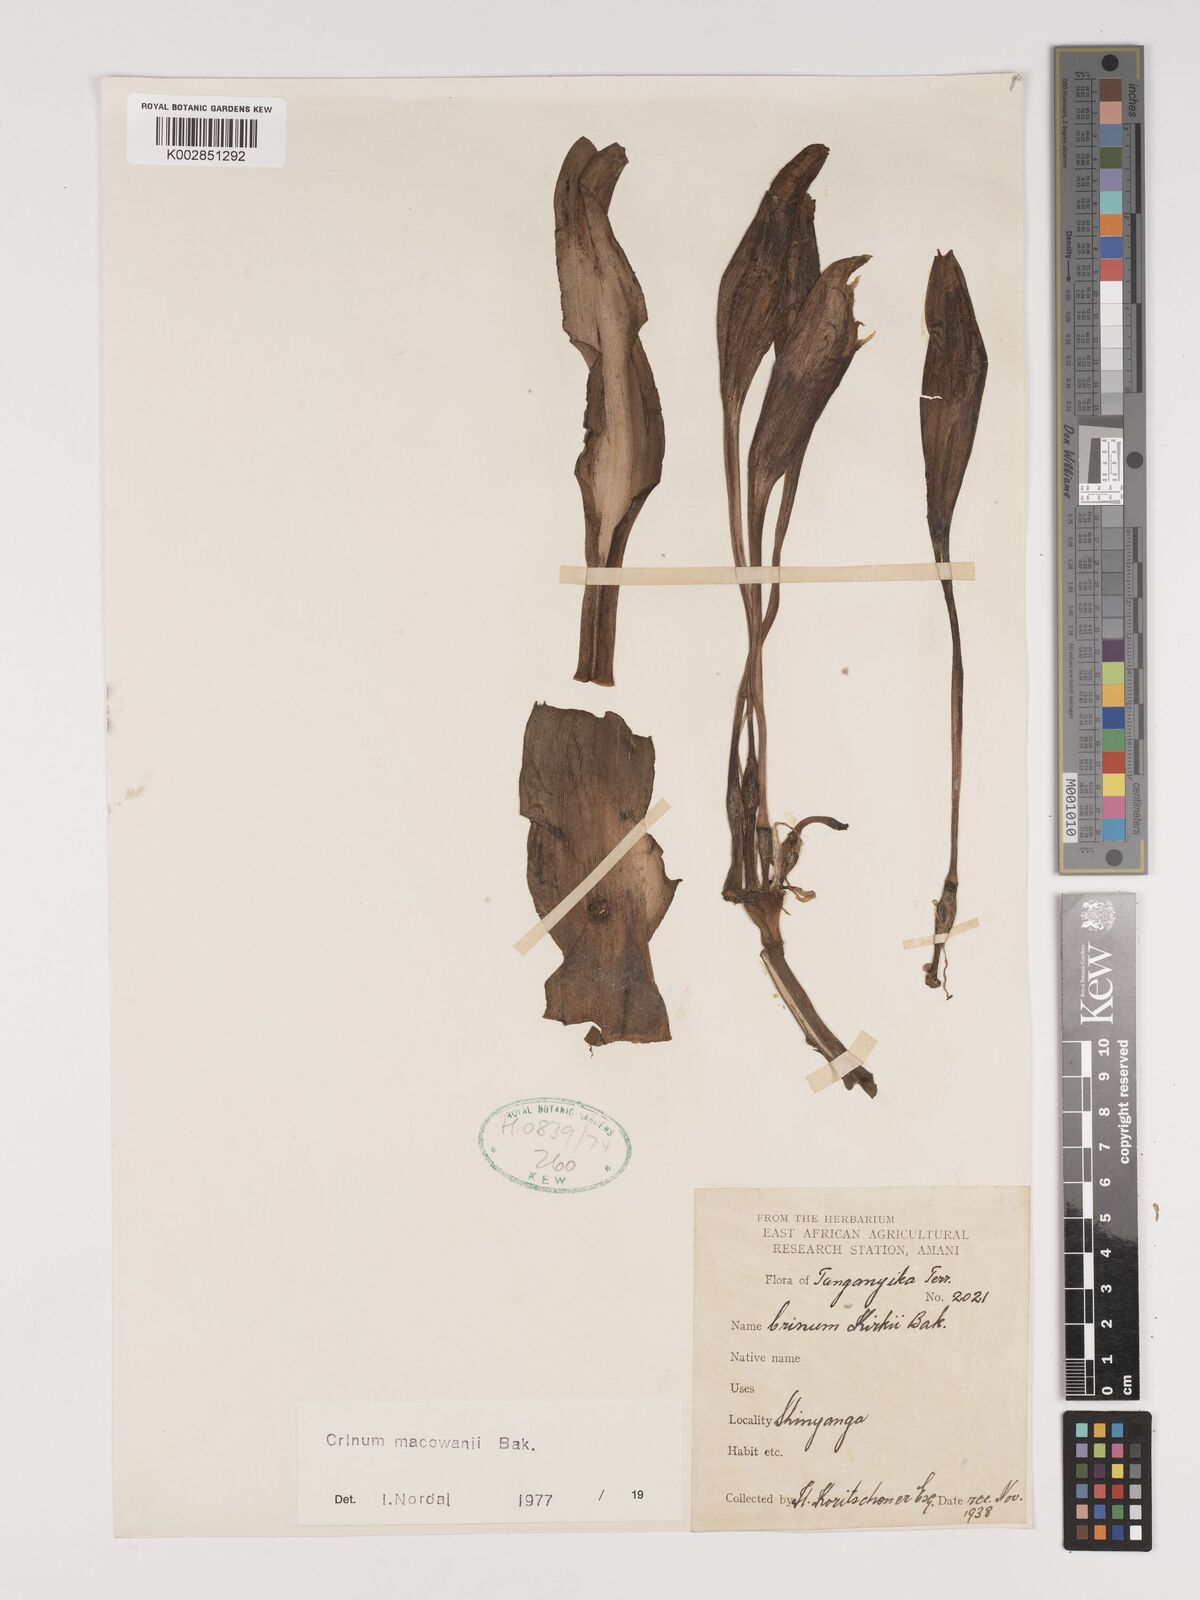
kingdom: Plantae
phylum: Tracheophyta
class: Liliopsida
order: Asparagales
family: Amaryllidaceae
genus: Crinum
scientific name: Crinum macowanii
